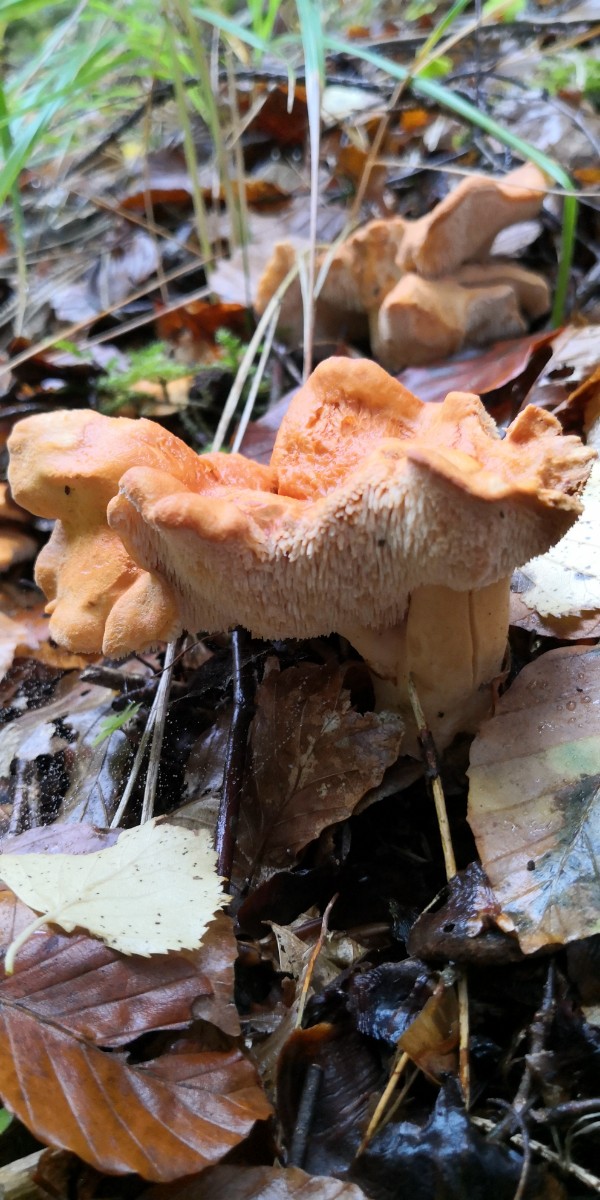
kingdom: Fungi
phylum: Basidiomycota
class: Agaricomycetes
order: Cantharellales
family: Hydnaceae
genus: Hydnum
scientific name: Hydnum rufescens
